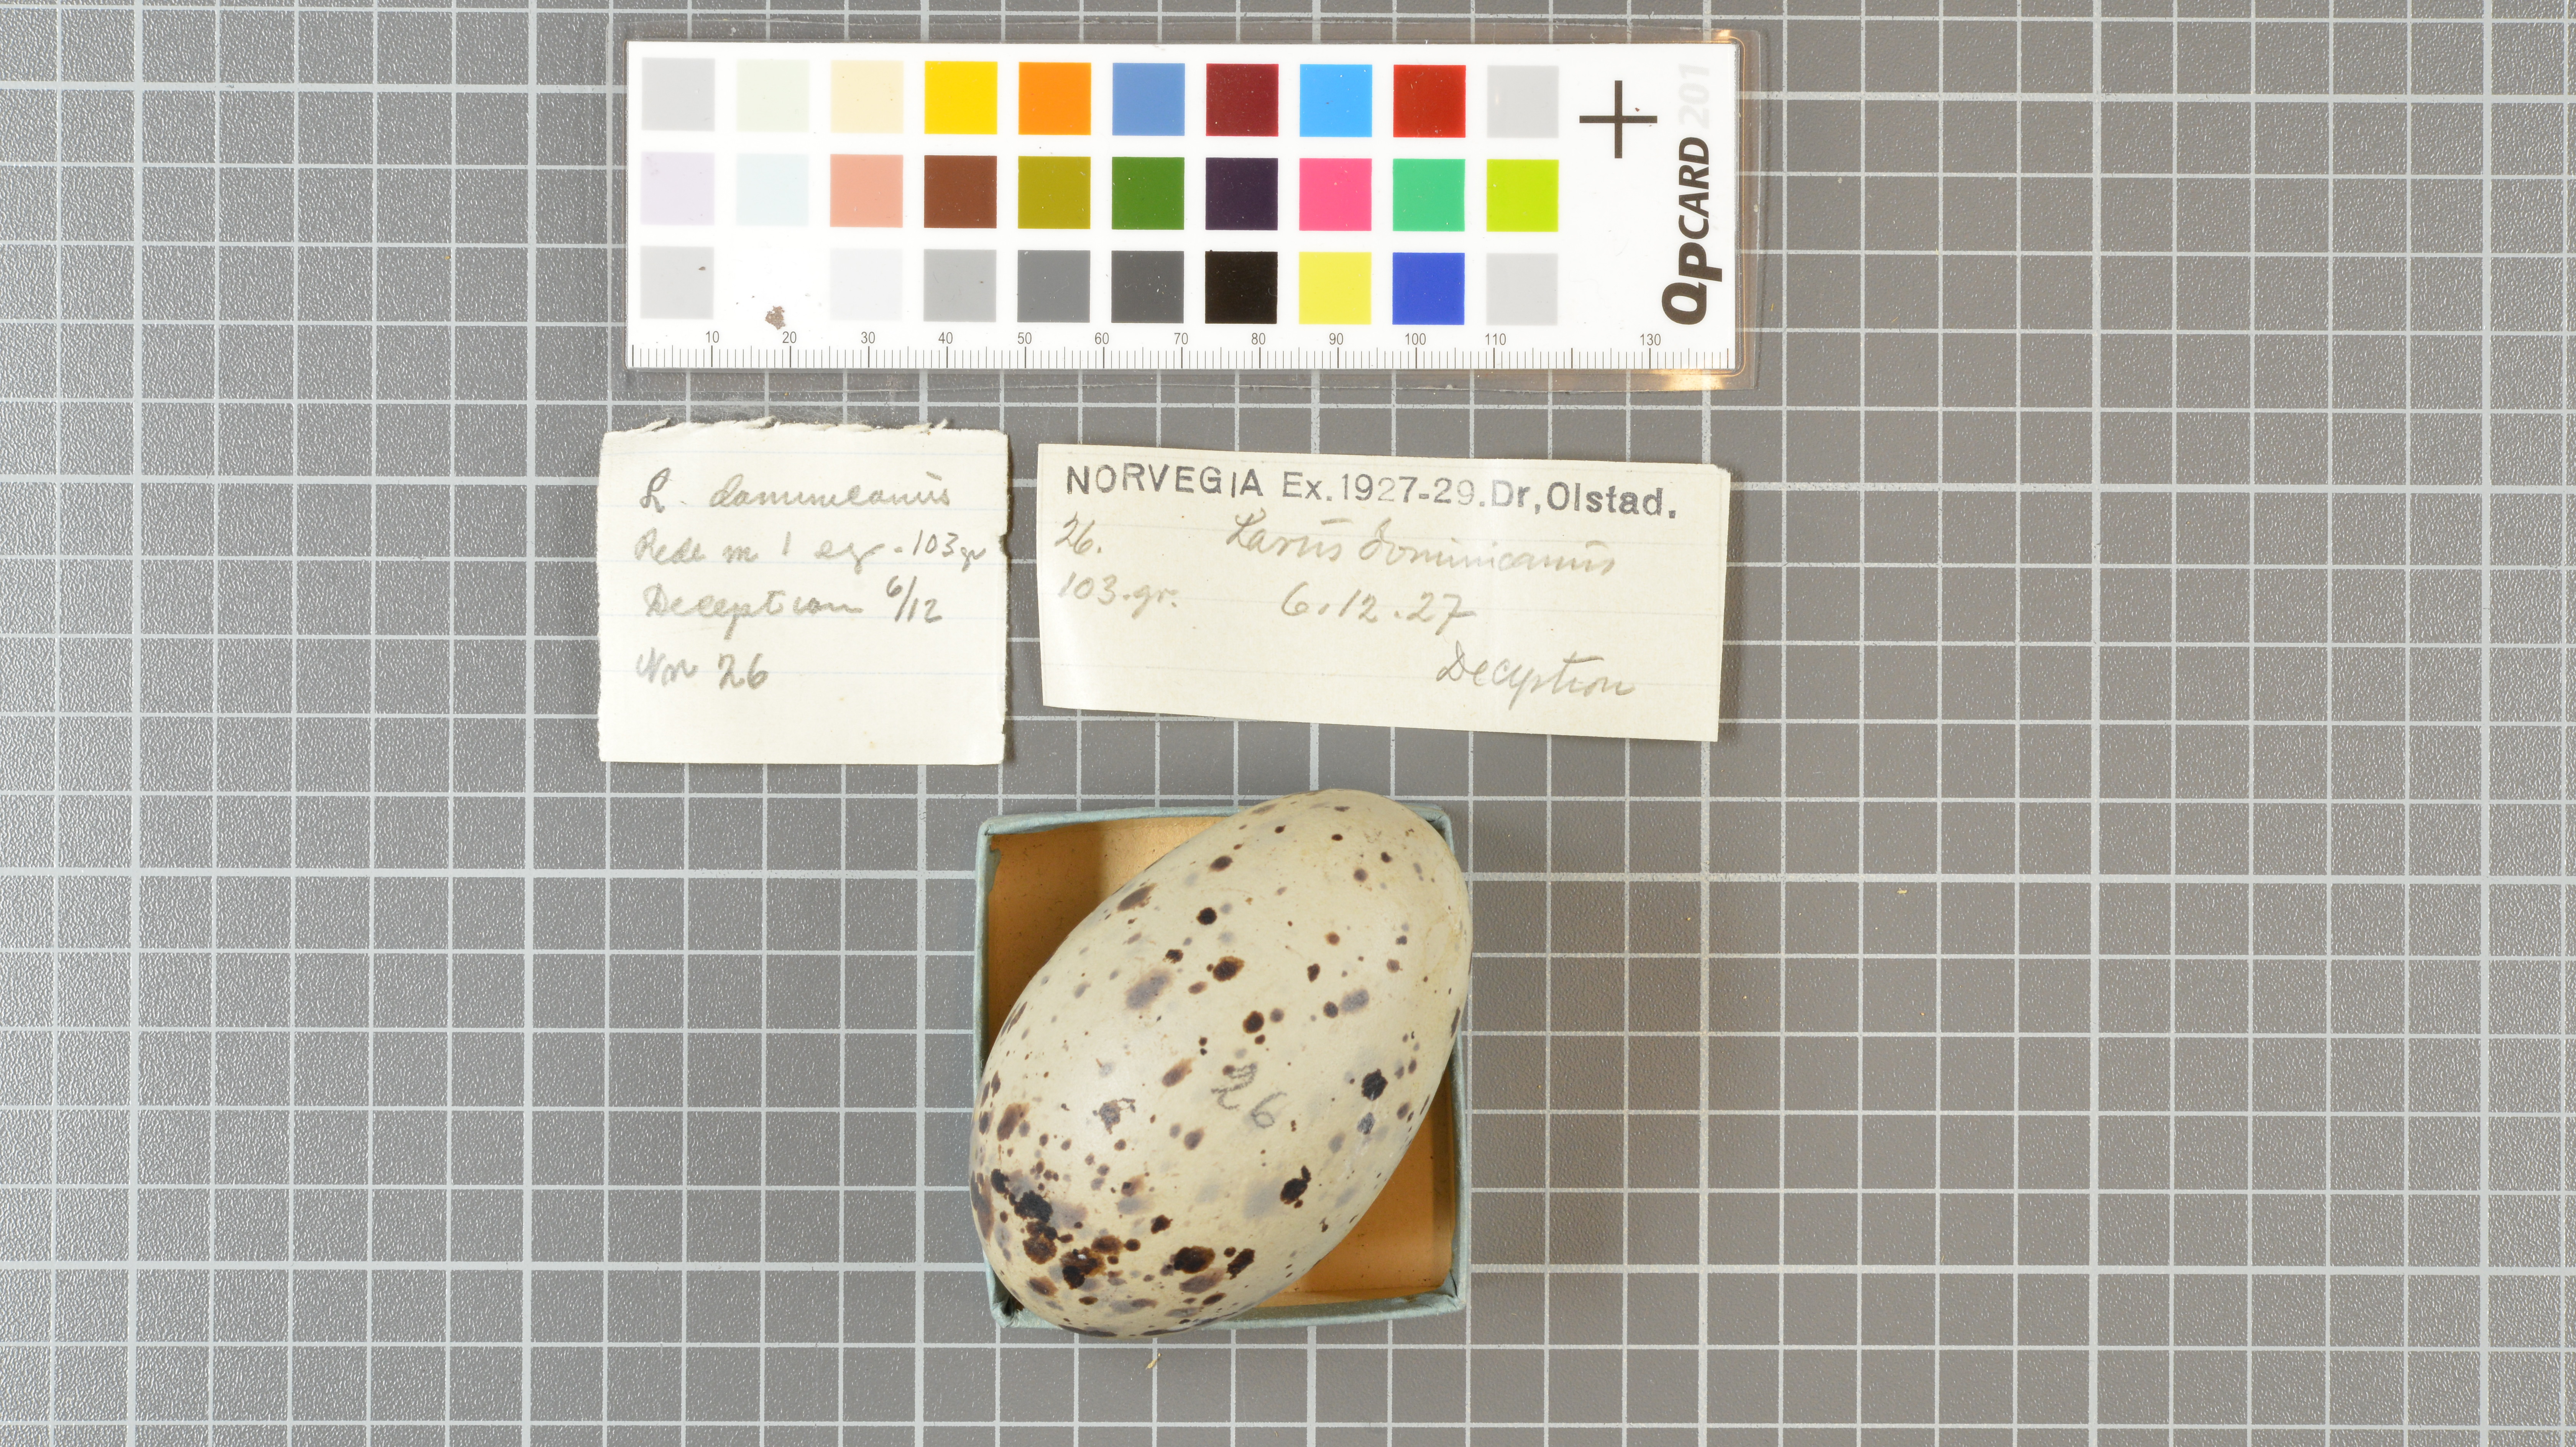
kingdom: Animalia
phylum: Chordata
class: Aves
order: Charadriiformes
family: Laridae
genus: Larus
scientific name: Larus dominicanus
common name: Kelp gull
